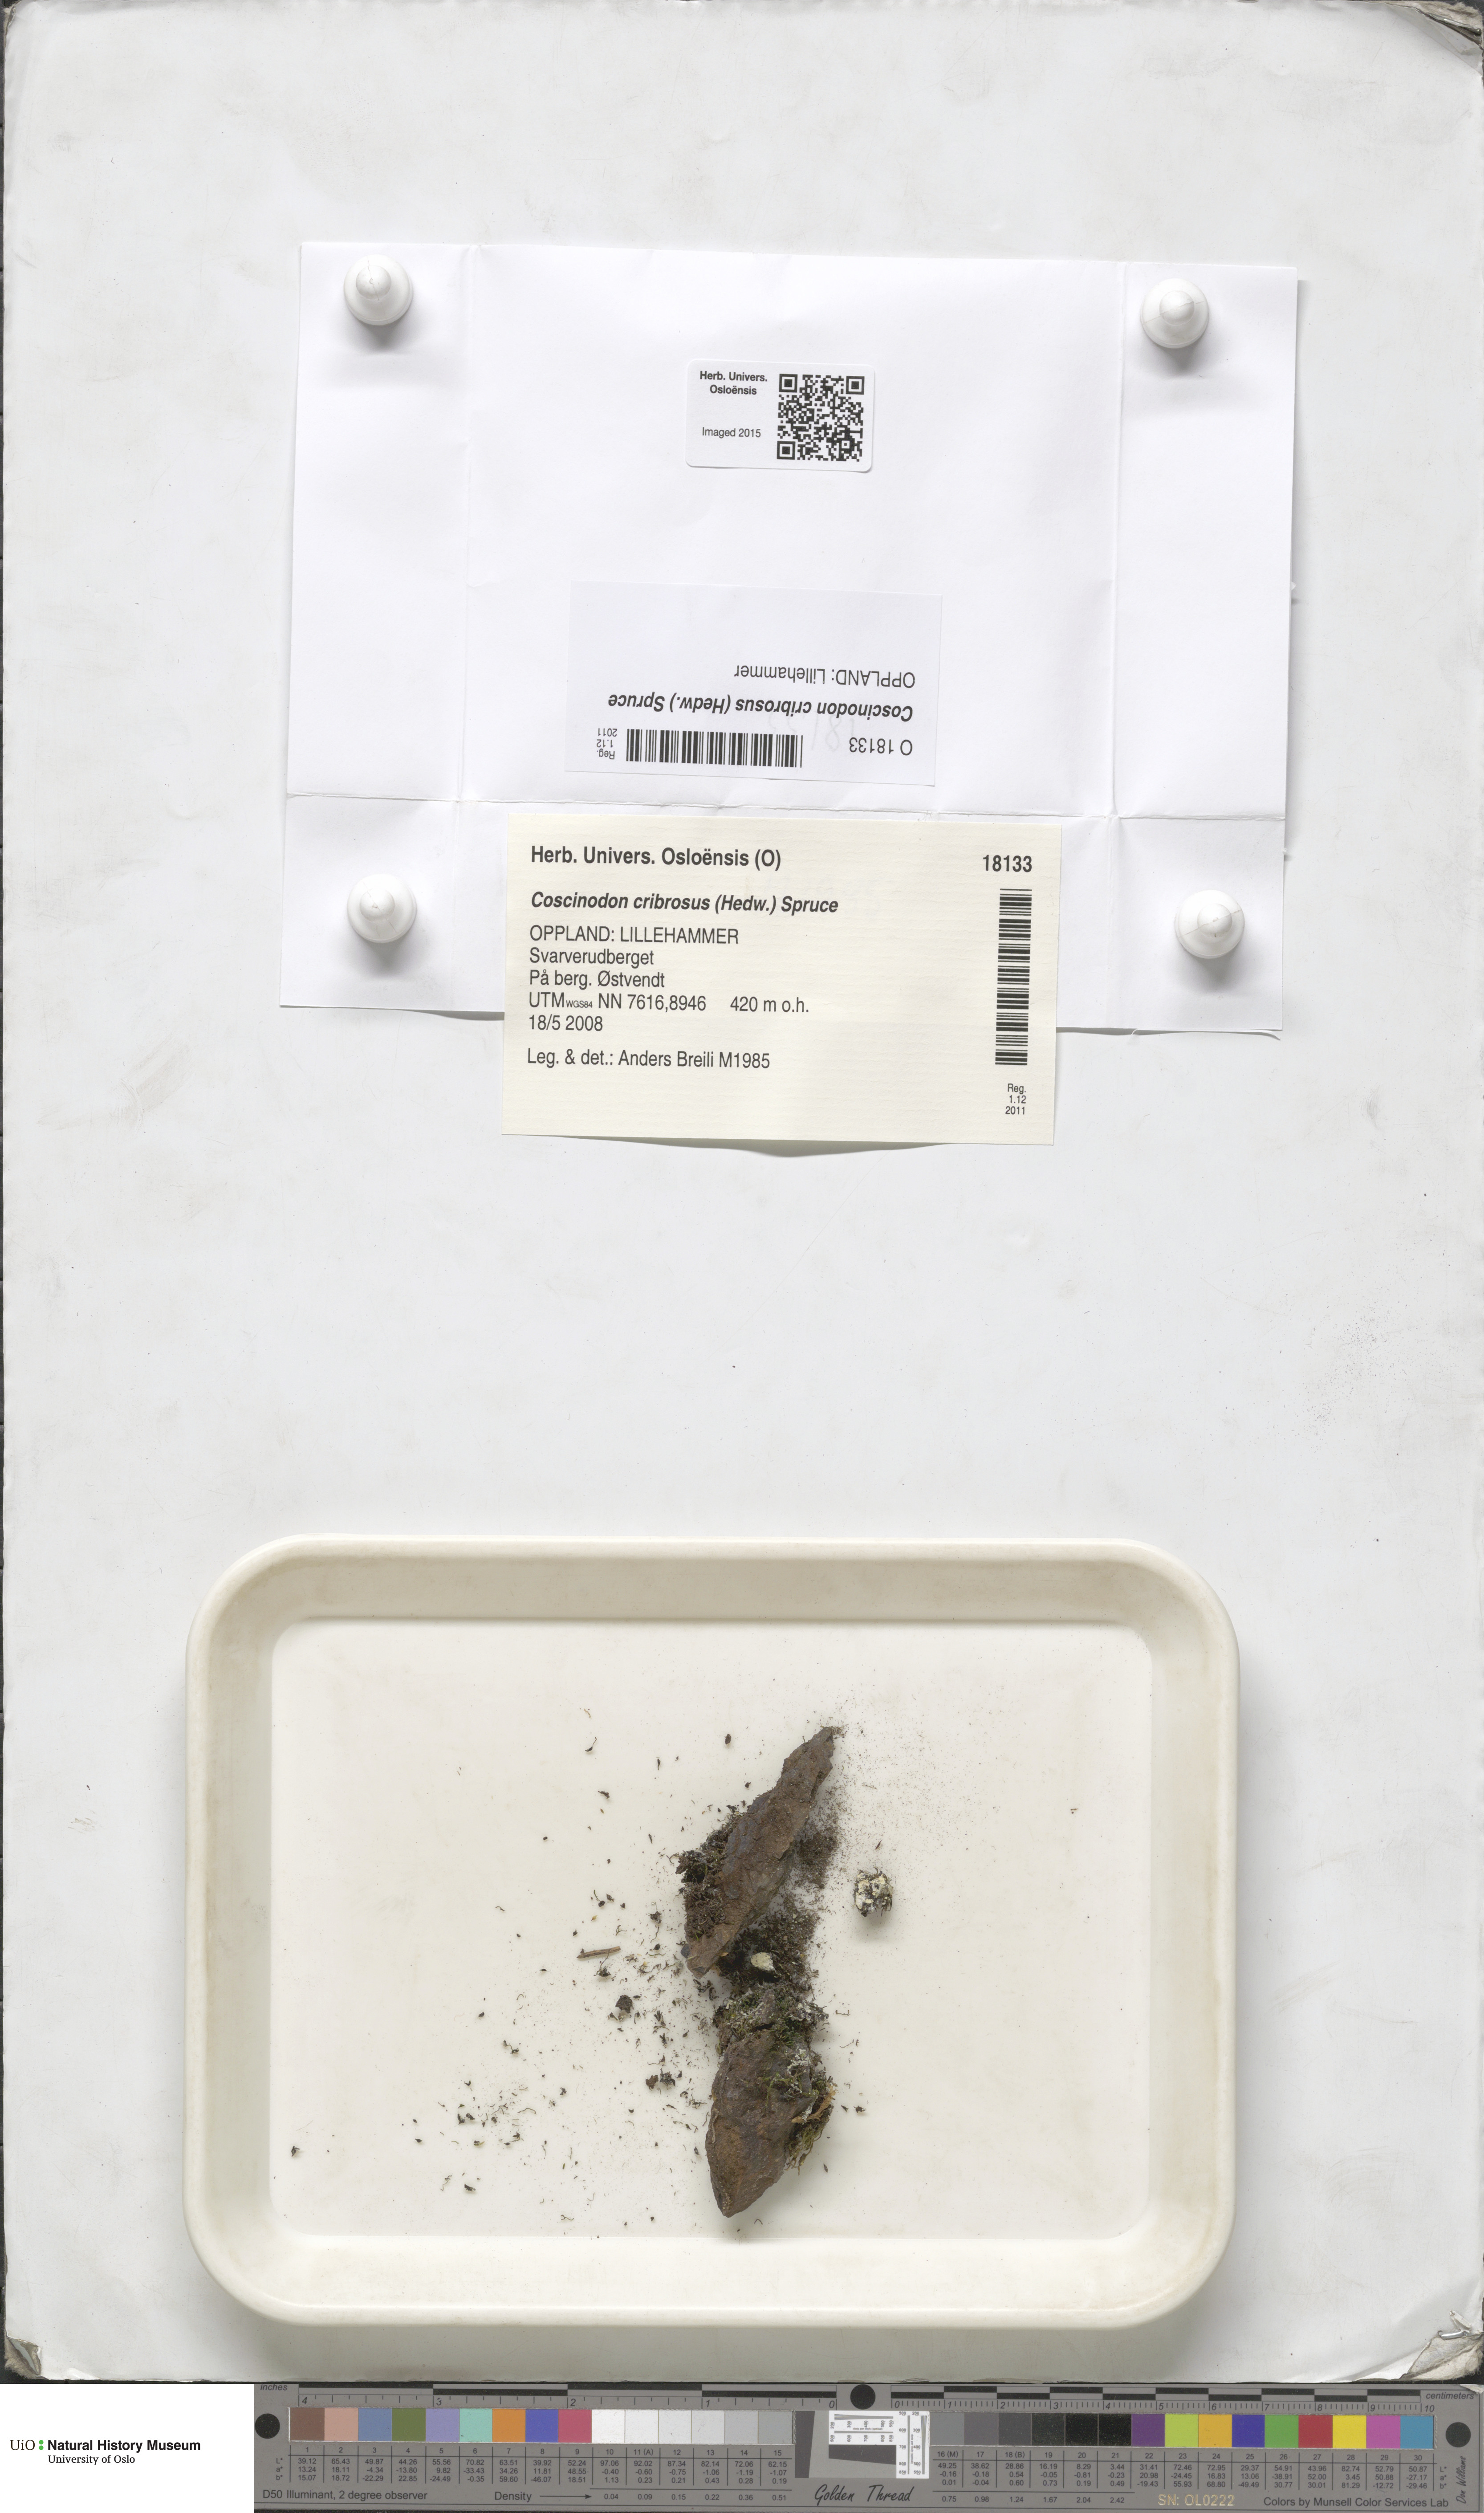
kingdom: Plantae
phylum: Bryophyta
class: Bryopsida
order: Grimmiales
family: Grimmiaceae
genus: Coscinodon
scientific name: Coscinodon cribrosus
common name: Sieve-tooth moss
